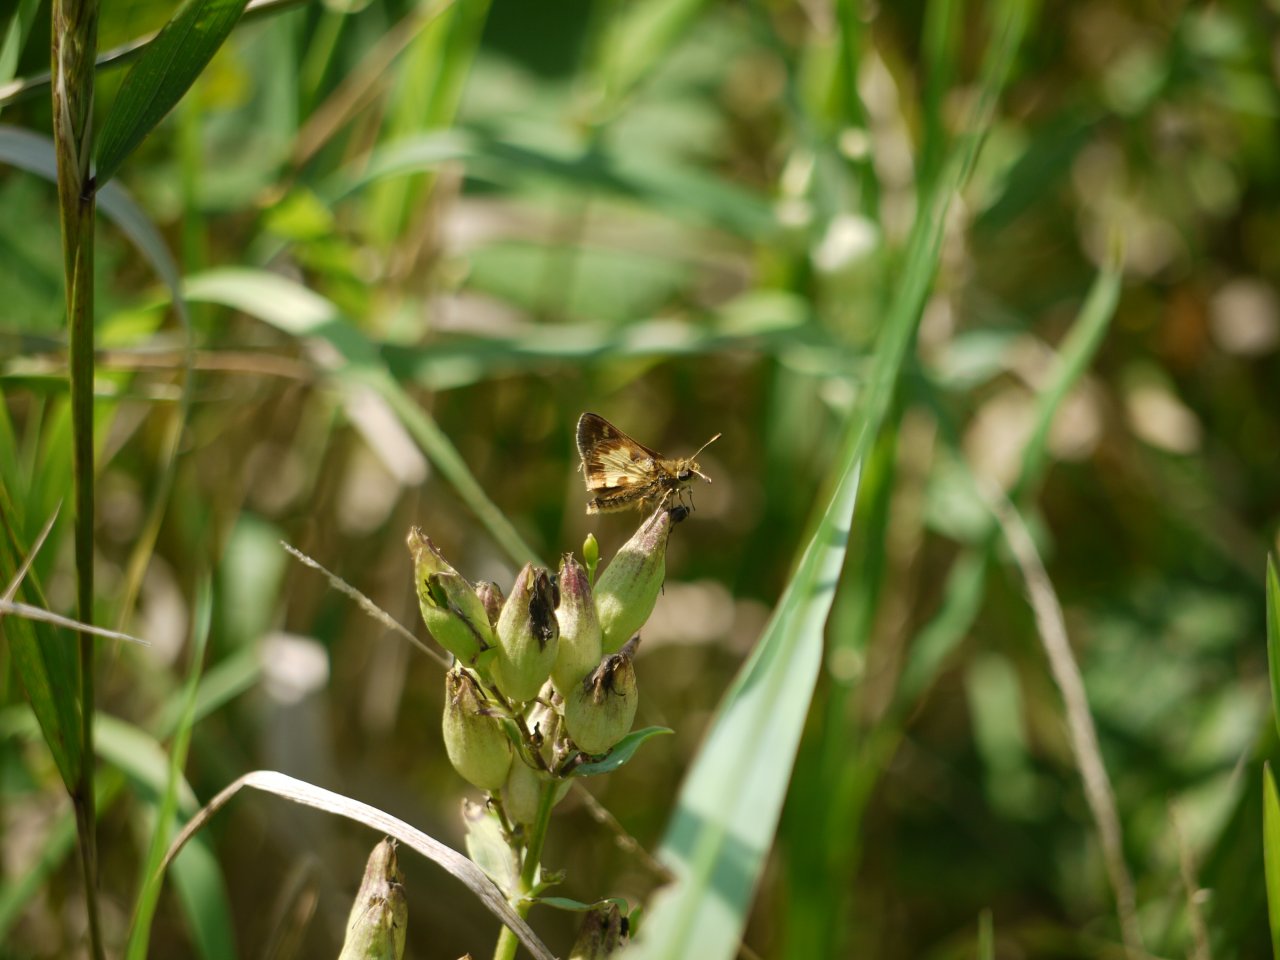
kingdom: Animalia
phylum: Arthropoda
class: Insecta
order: Lepidoptera
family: Hesperiidae
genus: Polites
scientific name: Polites coras
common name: Peck's Skipper
